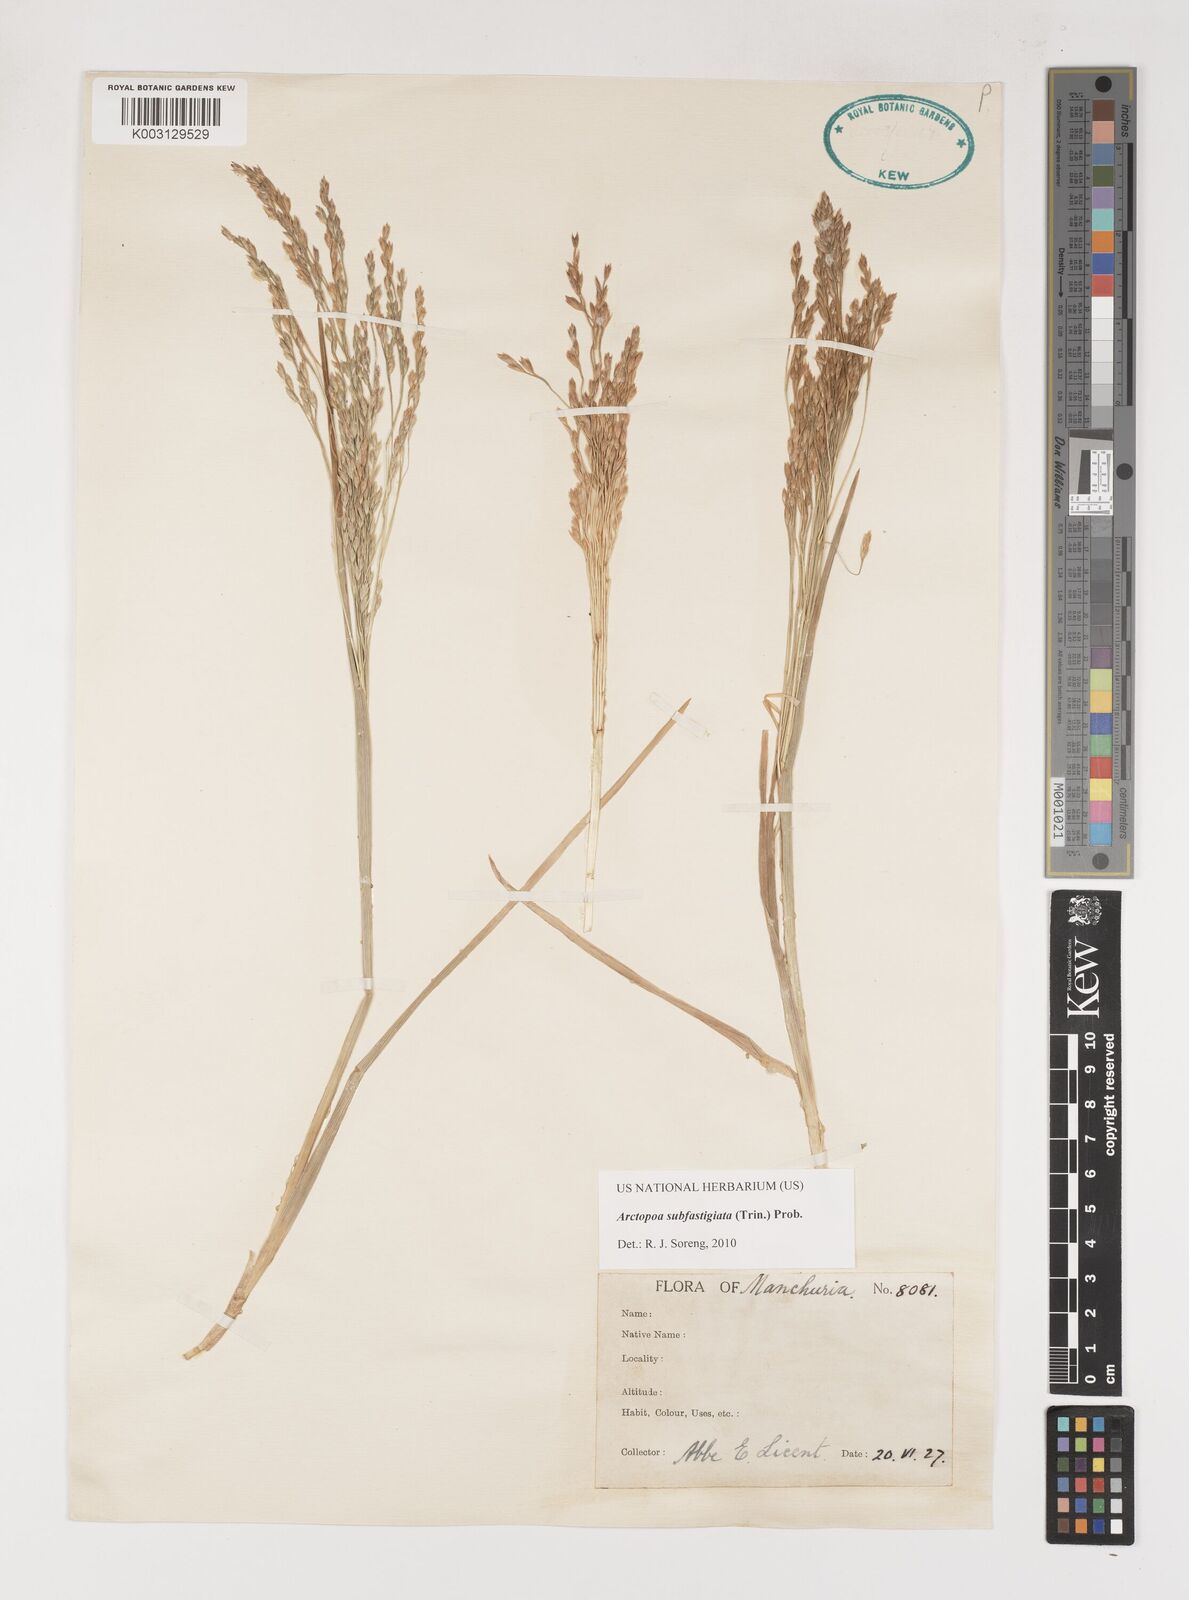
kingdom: Plantae
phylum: Tracheophyta
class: Liliopsida
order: Poales
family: Poaceae
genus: Arctopoa
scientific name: Arctopoa subfastigiata
